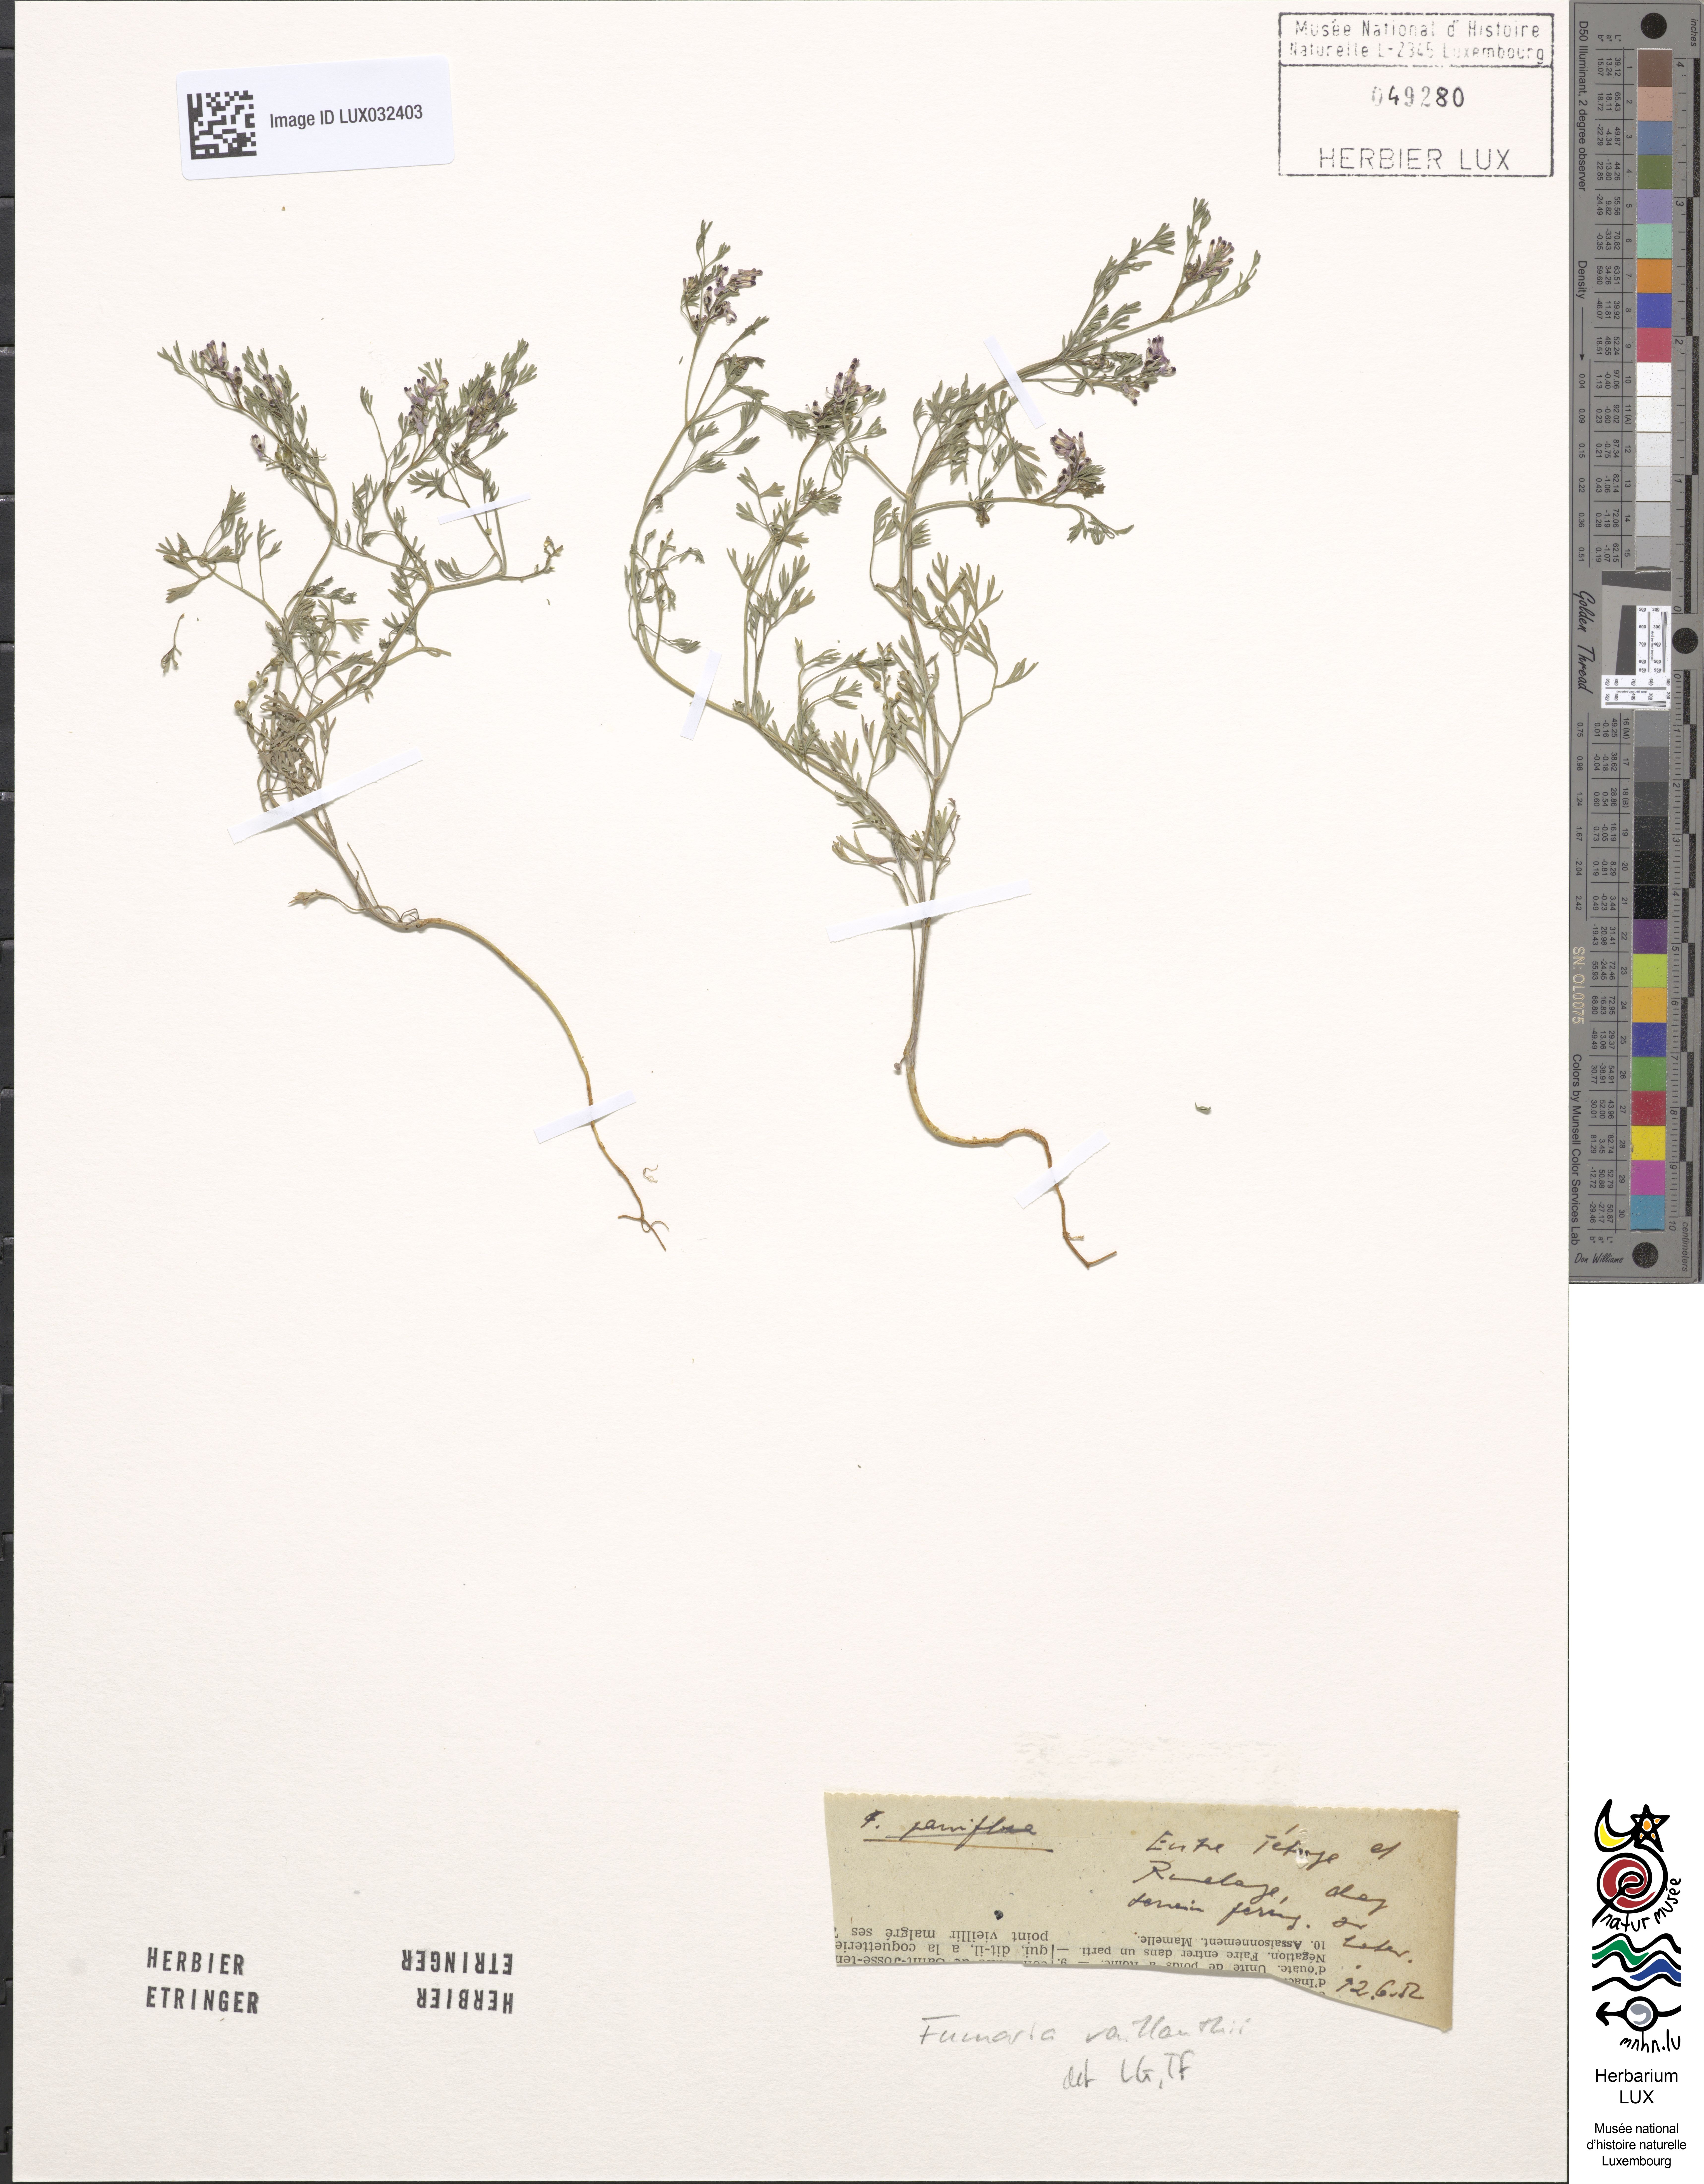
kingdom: Plantae
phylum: Tracheophyta
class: Magnoliopsida
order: Ranunculales
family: Papaveraceae
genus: Fumaria
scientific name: Fumaria vaillantii
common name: Few-flowered fumitory
